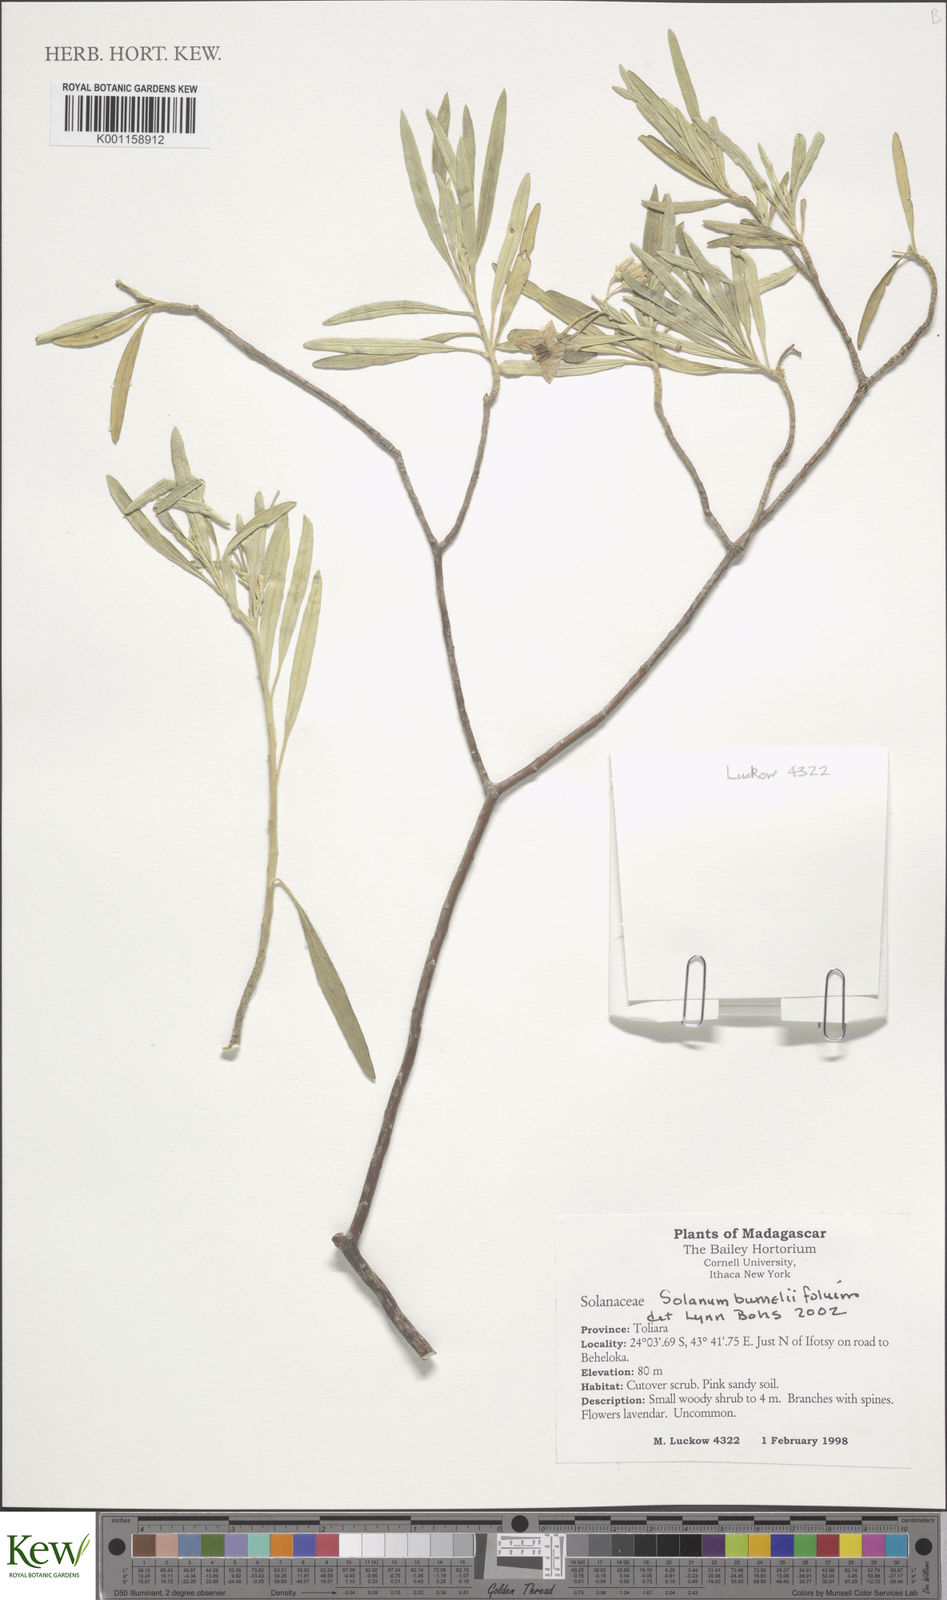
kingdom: Plantae
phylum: Tracheophyta
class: Magnoliopsida
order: Solanales
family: Solanaceae
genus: Solanum
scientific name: Solanum bumeliifolium
